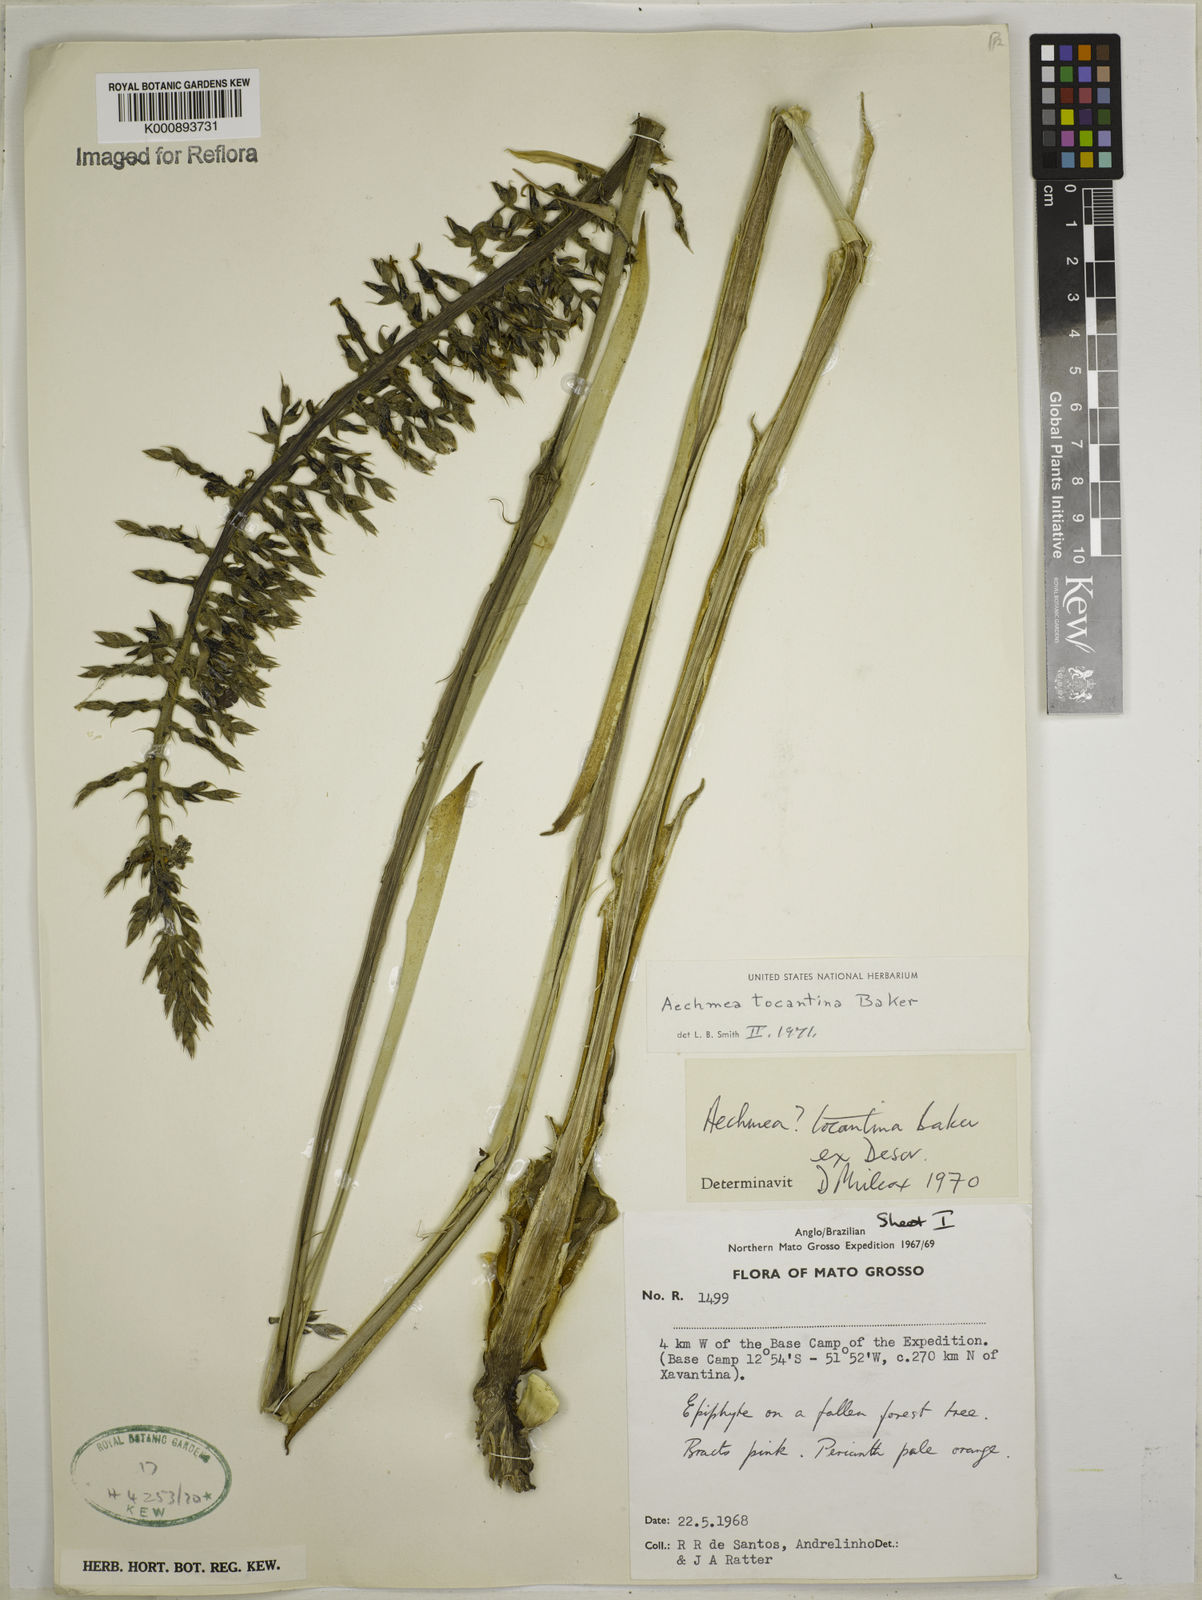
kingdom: Plantae
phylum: Tracheophyta
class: Liliopsida
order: Poales
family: Bromeliaceae
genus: Aechmea
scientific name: Aechmea tocantina
